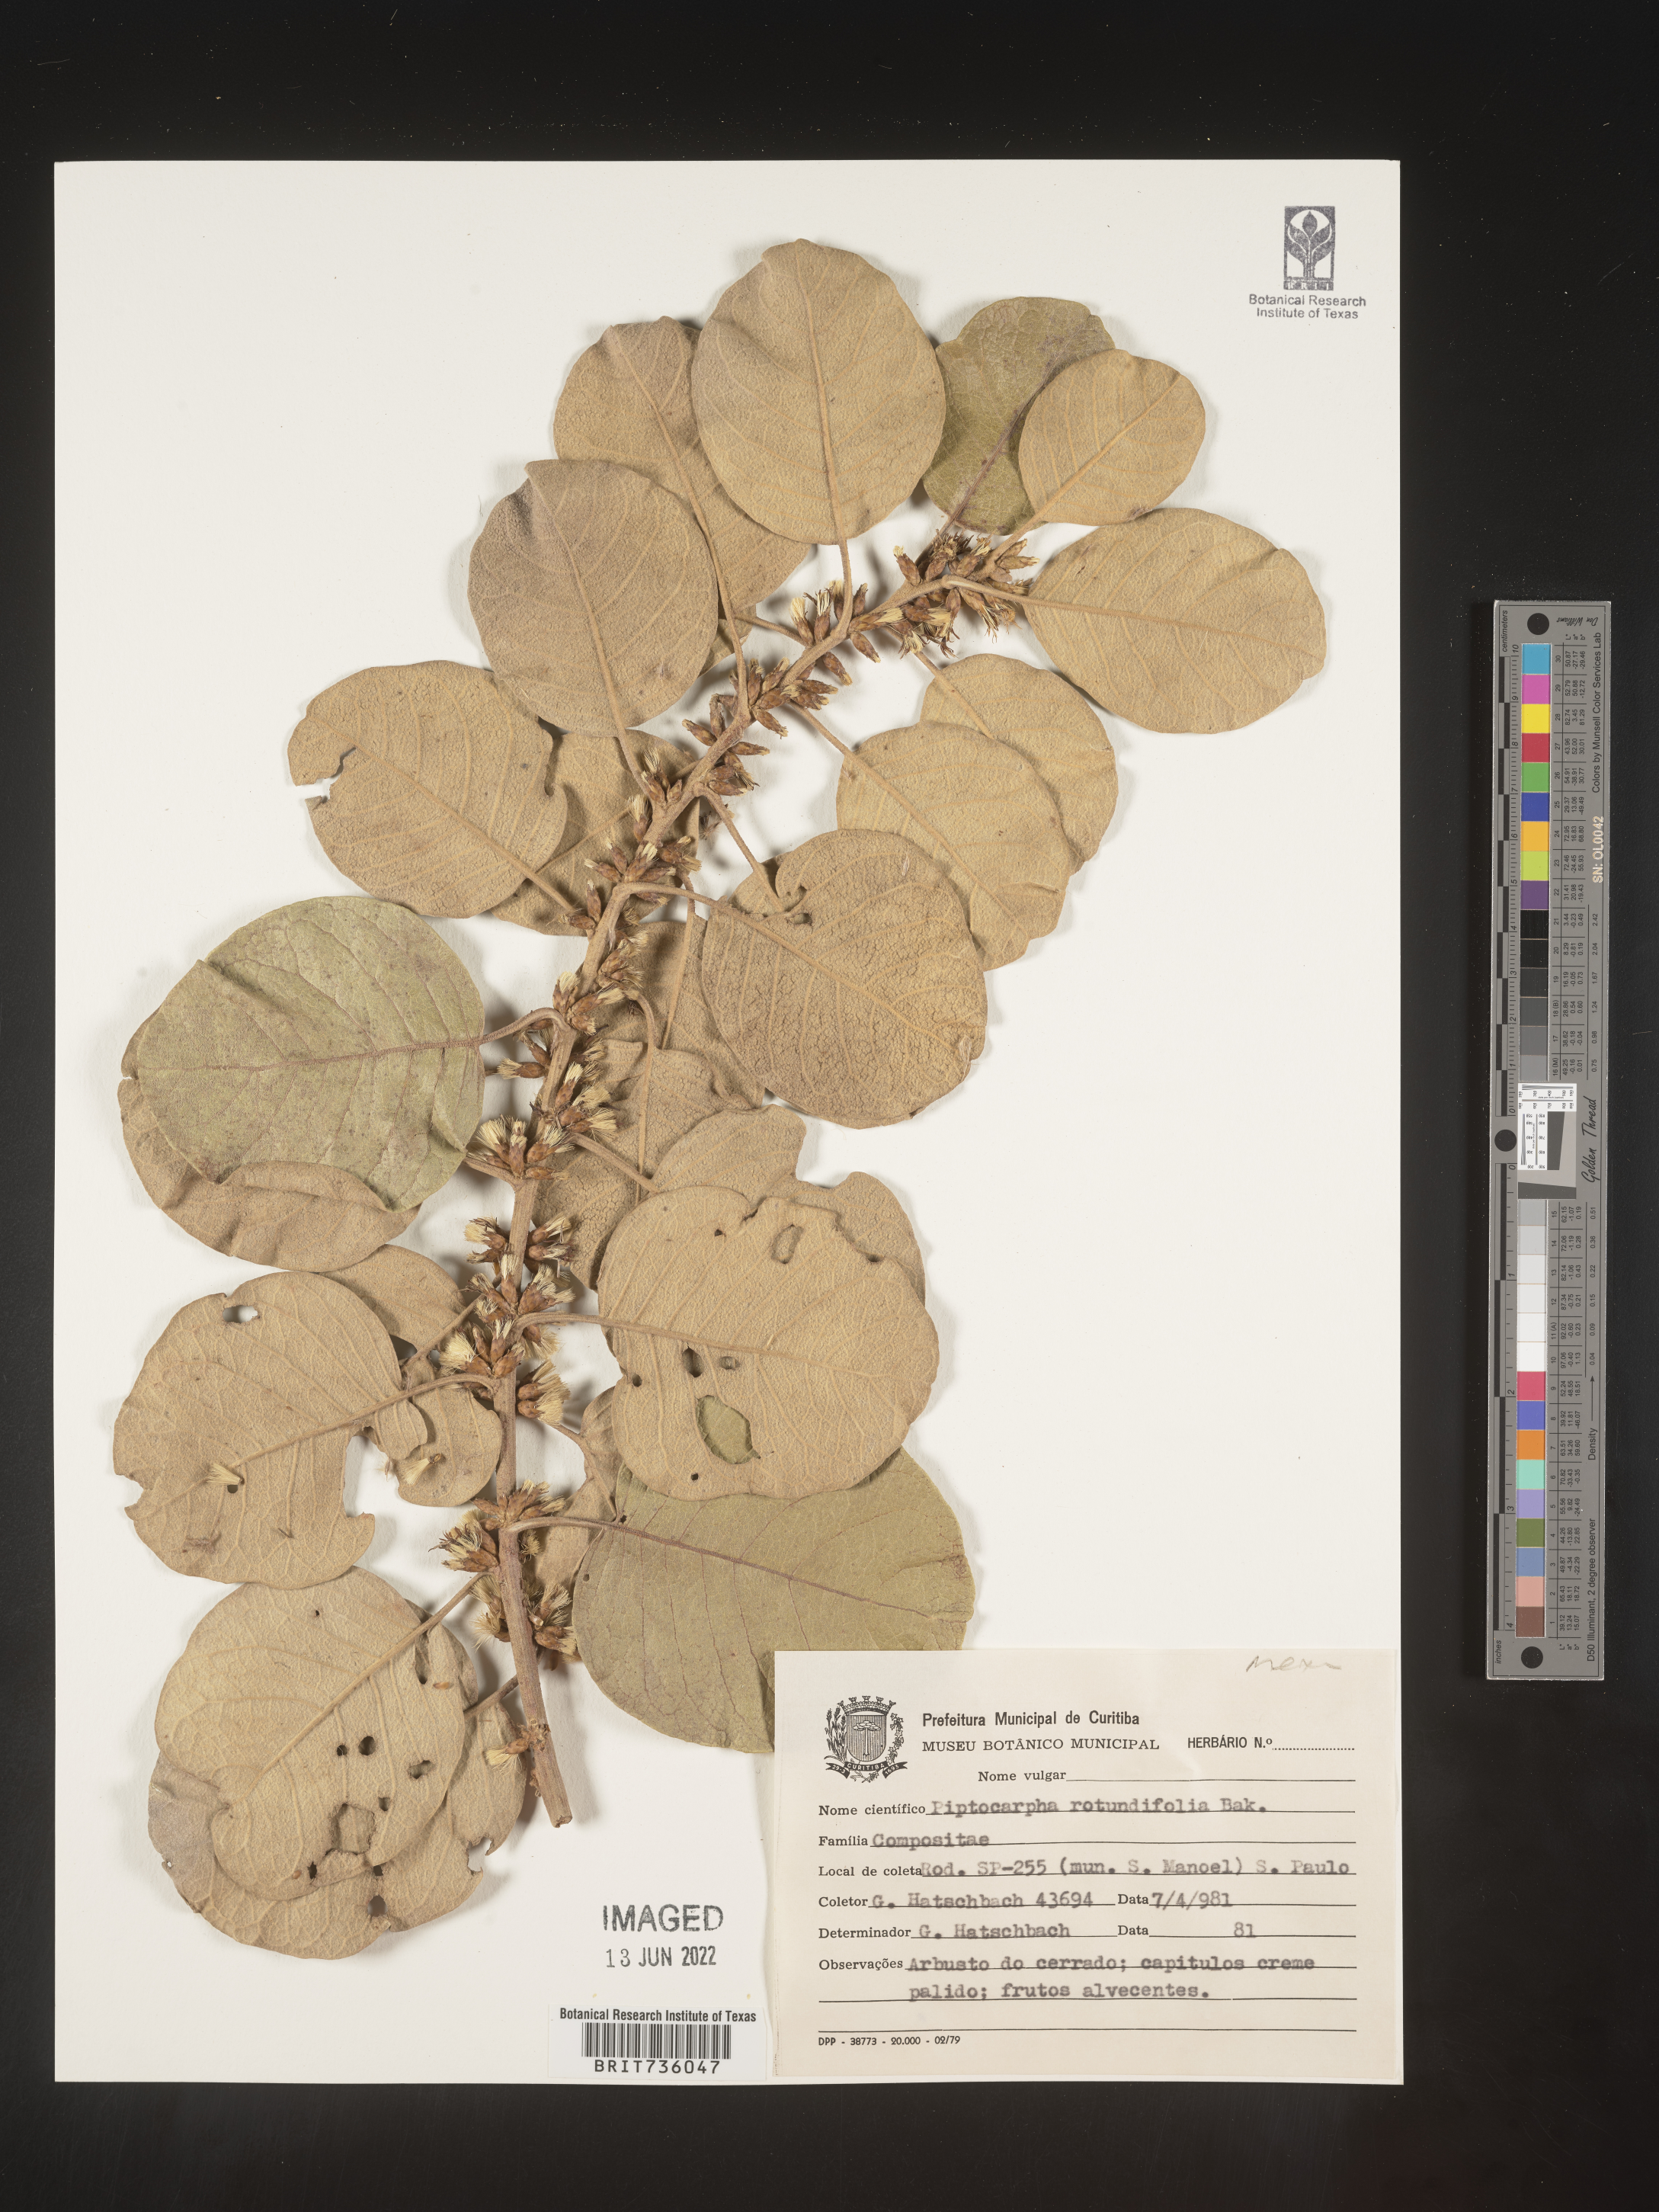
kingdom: Plantae
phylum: Tracheophyta
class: Magnoliopsida
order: Asterales
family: Asteraceae
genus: Piptocarpha
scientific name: Piptocarpha
